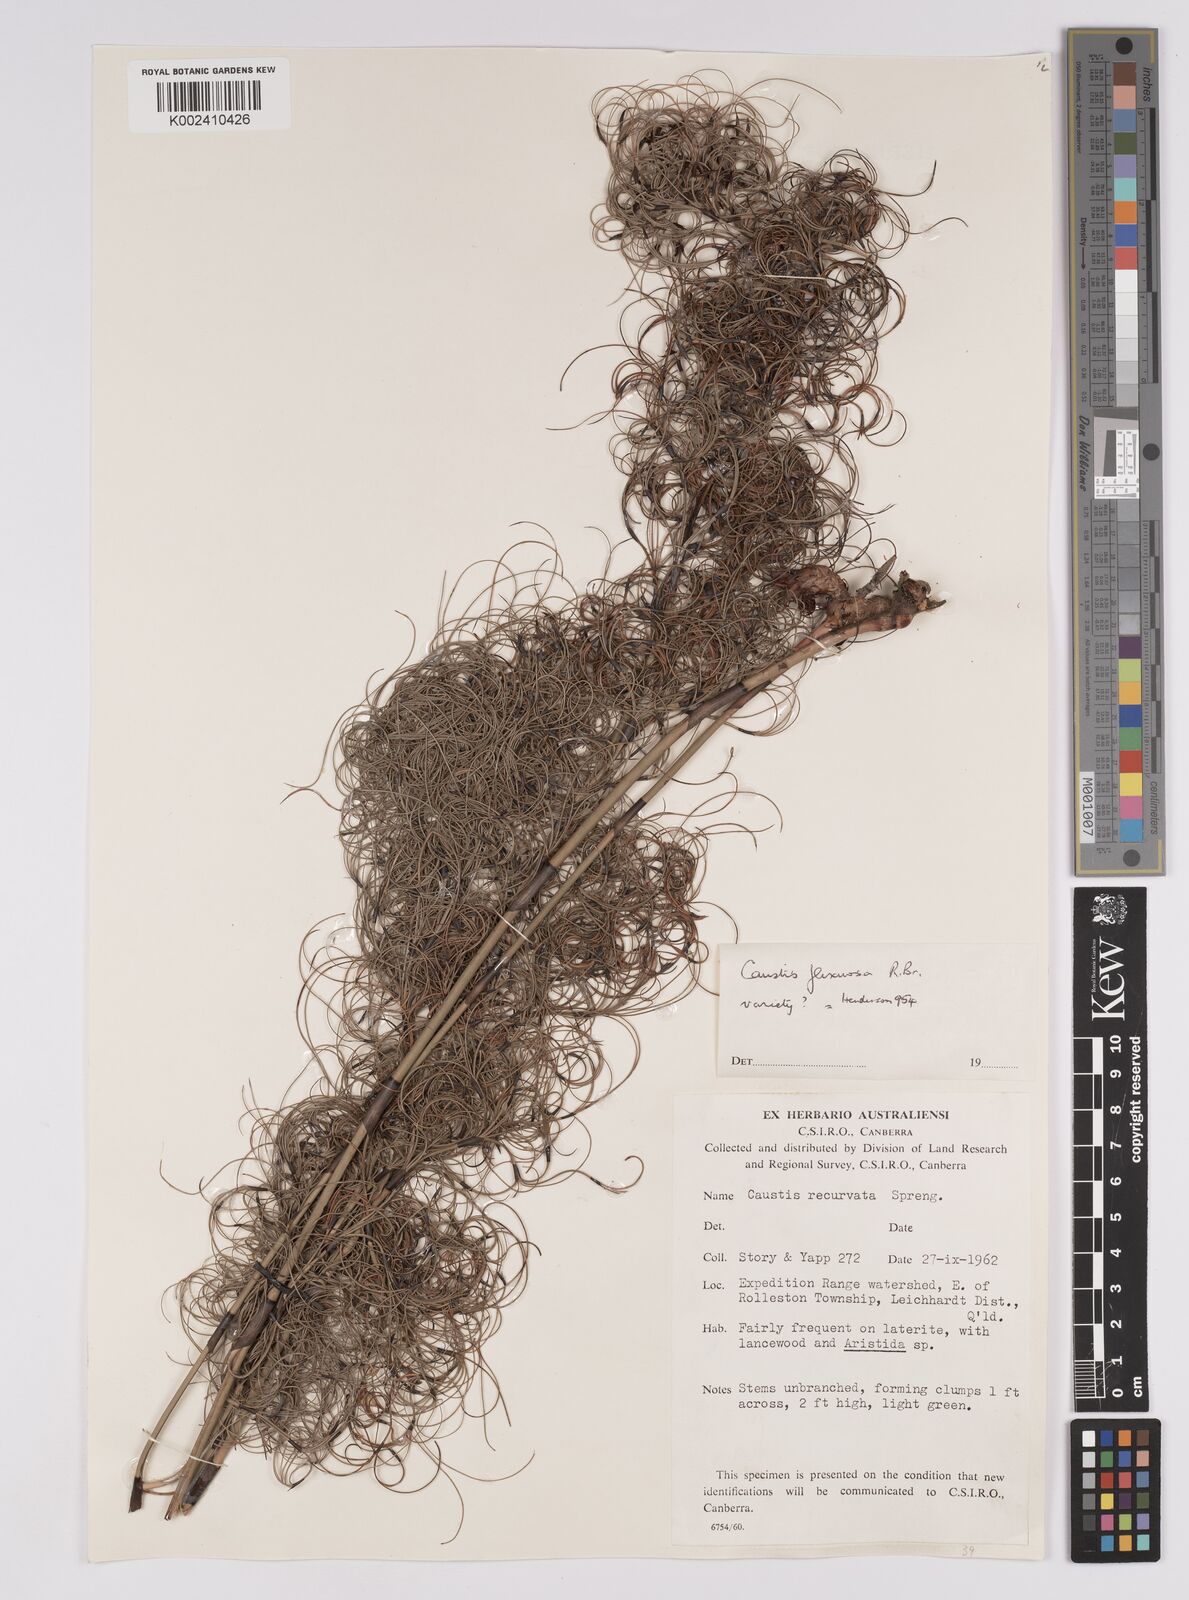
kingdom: Plantae
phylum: Tracheophyta
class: Liliopsida
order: Poales
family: Cyperaceae
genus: Caustis
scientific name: Caustis flexuosa
